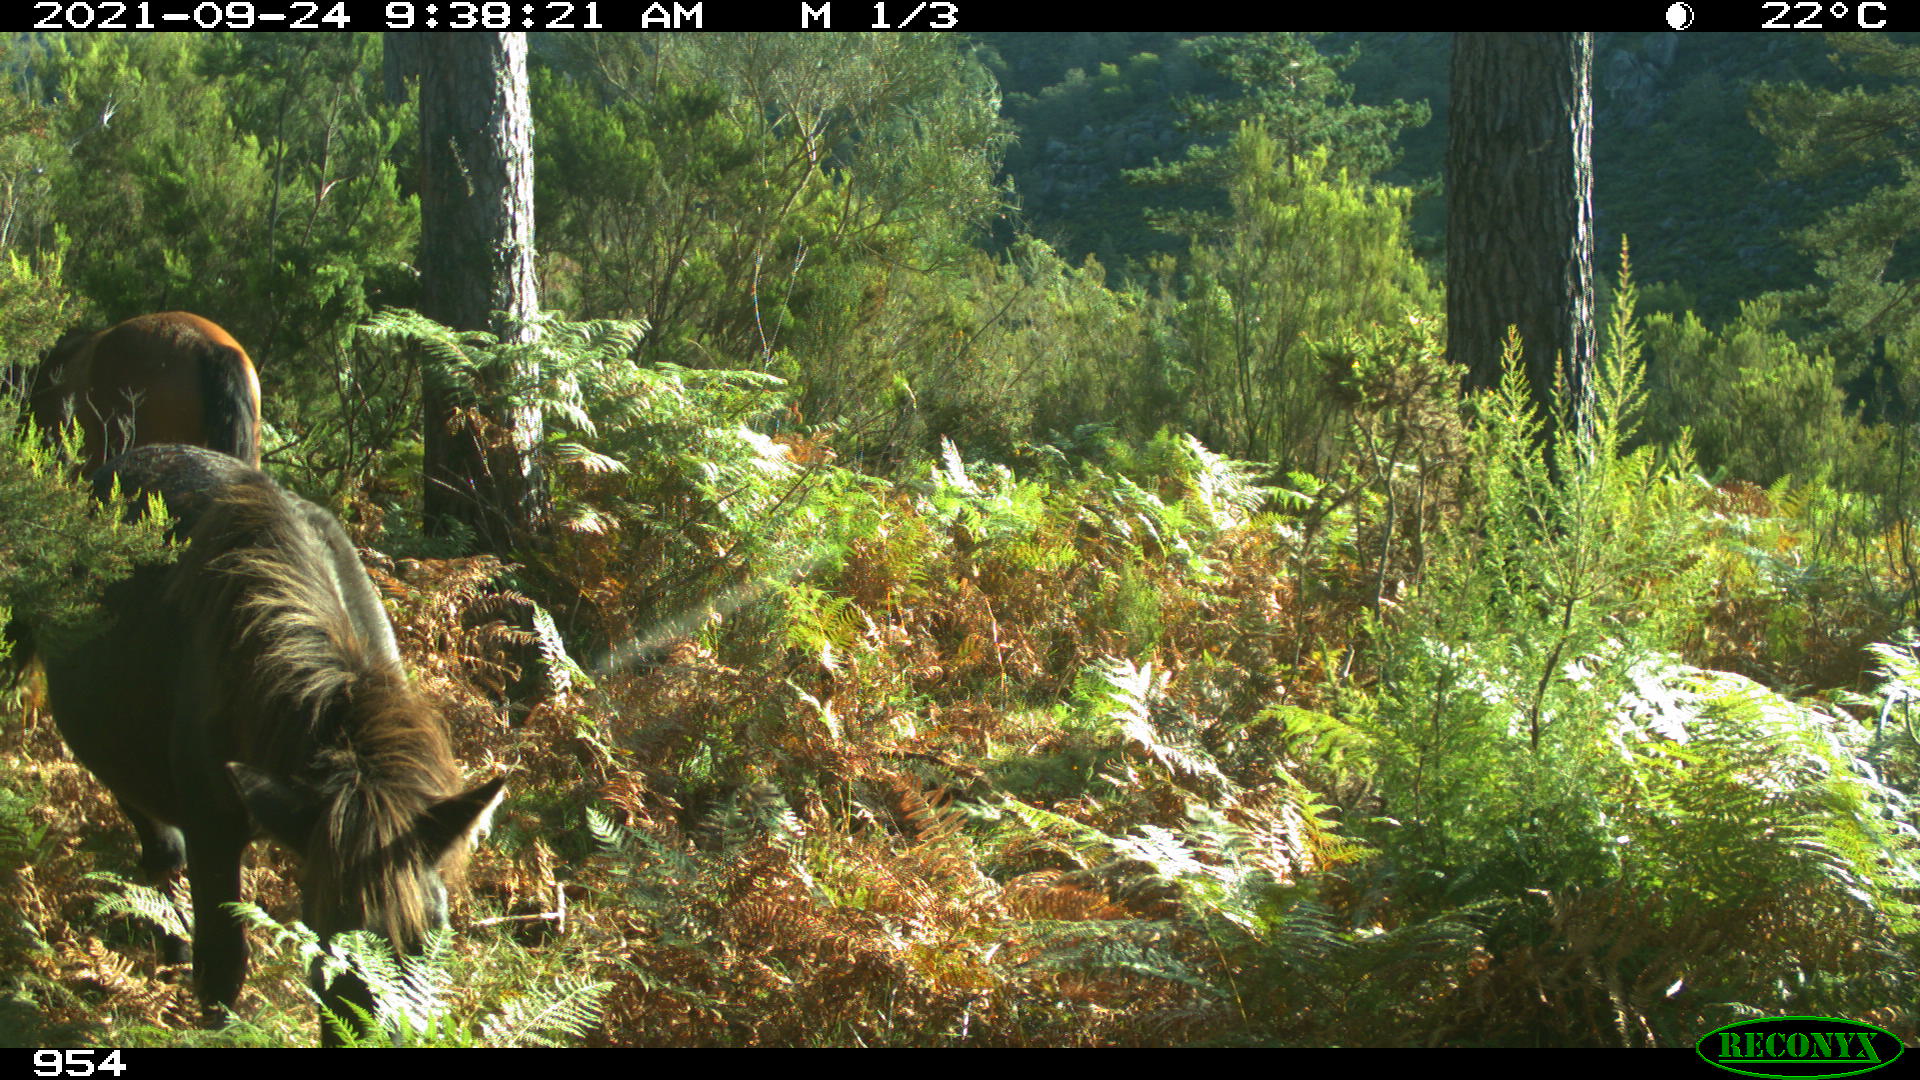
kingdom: Animalia
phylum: Chordata
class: Mammalia
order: Perissodactyla
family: Equidae
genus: Equus
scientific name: Equus caballus
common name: Horse
